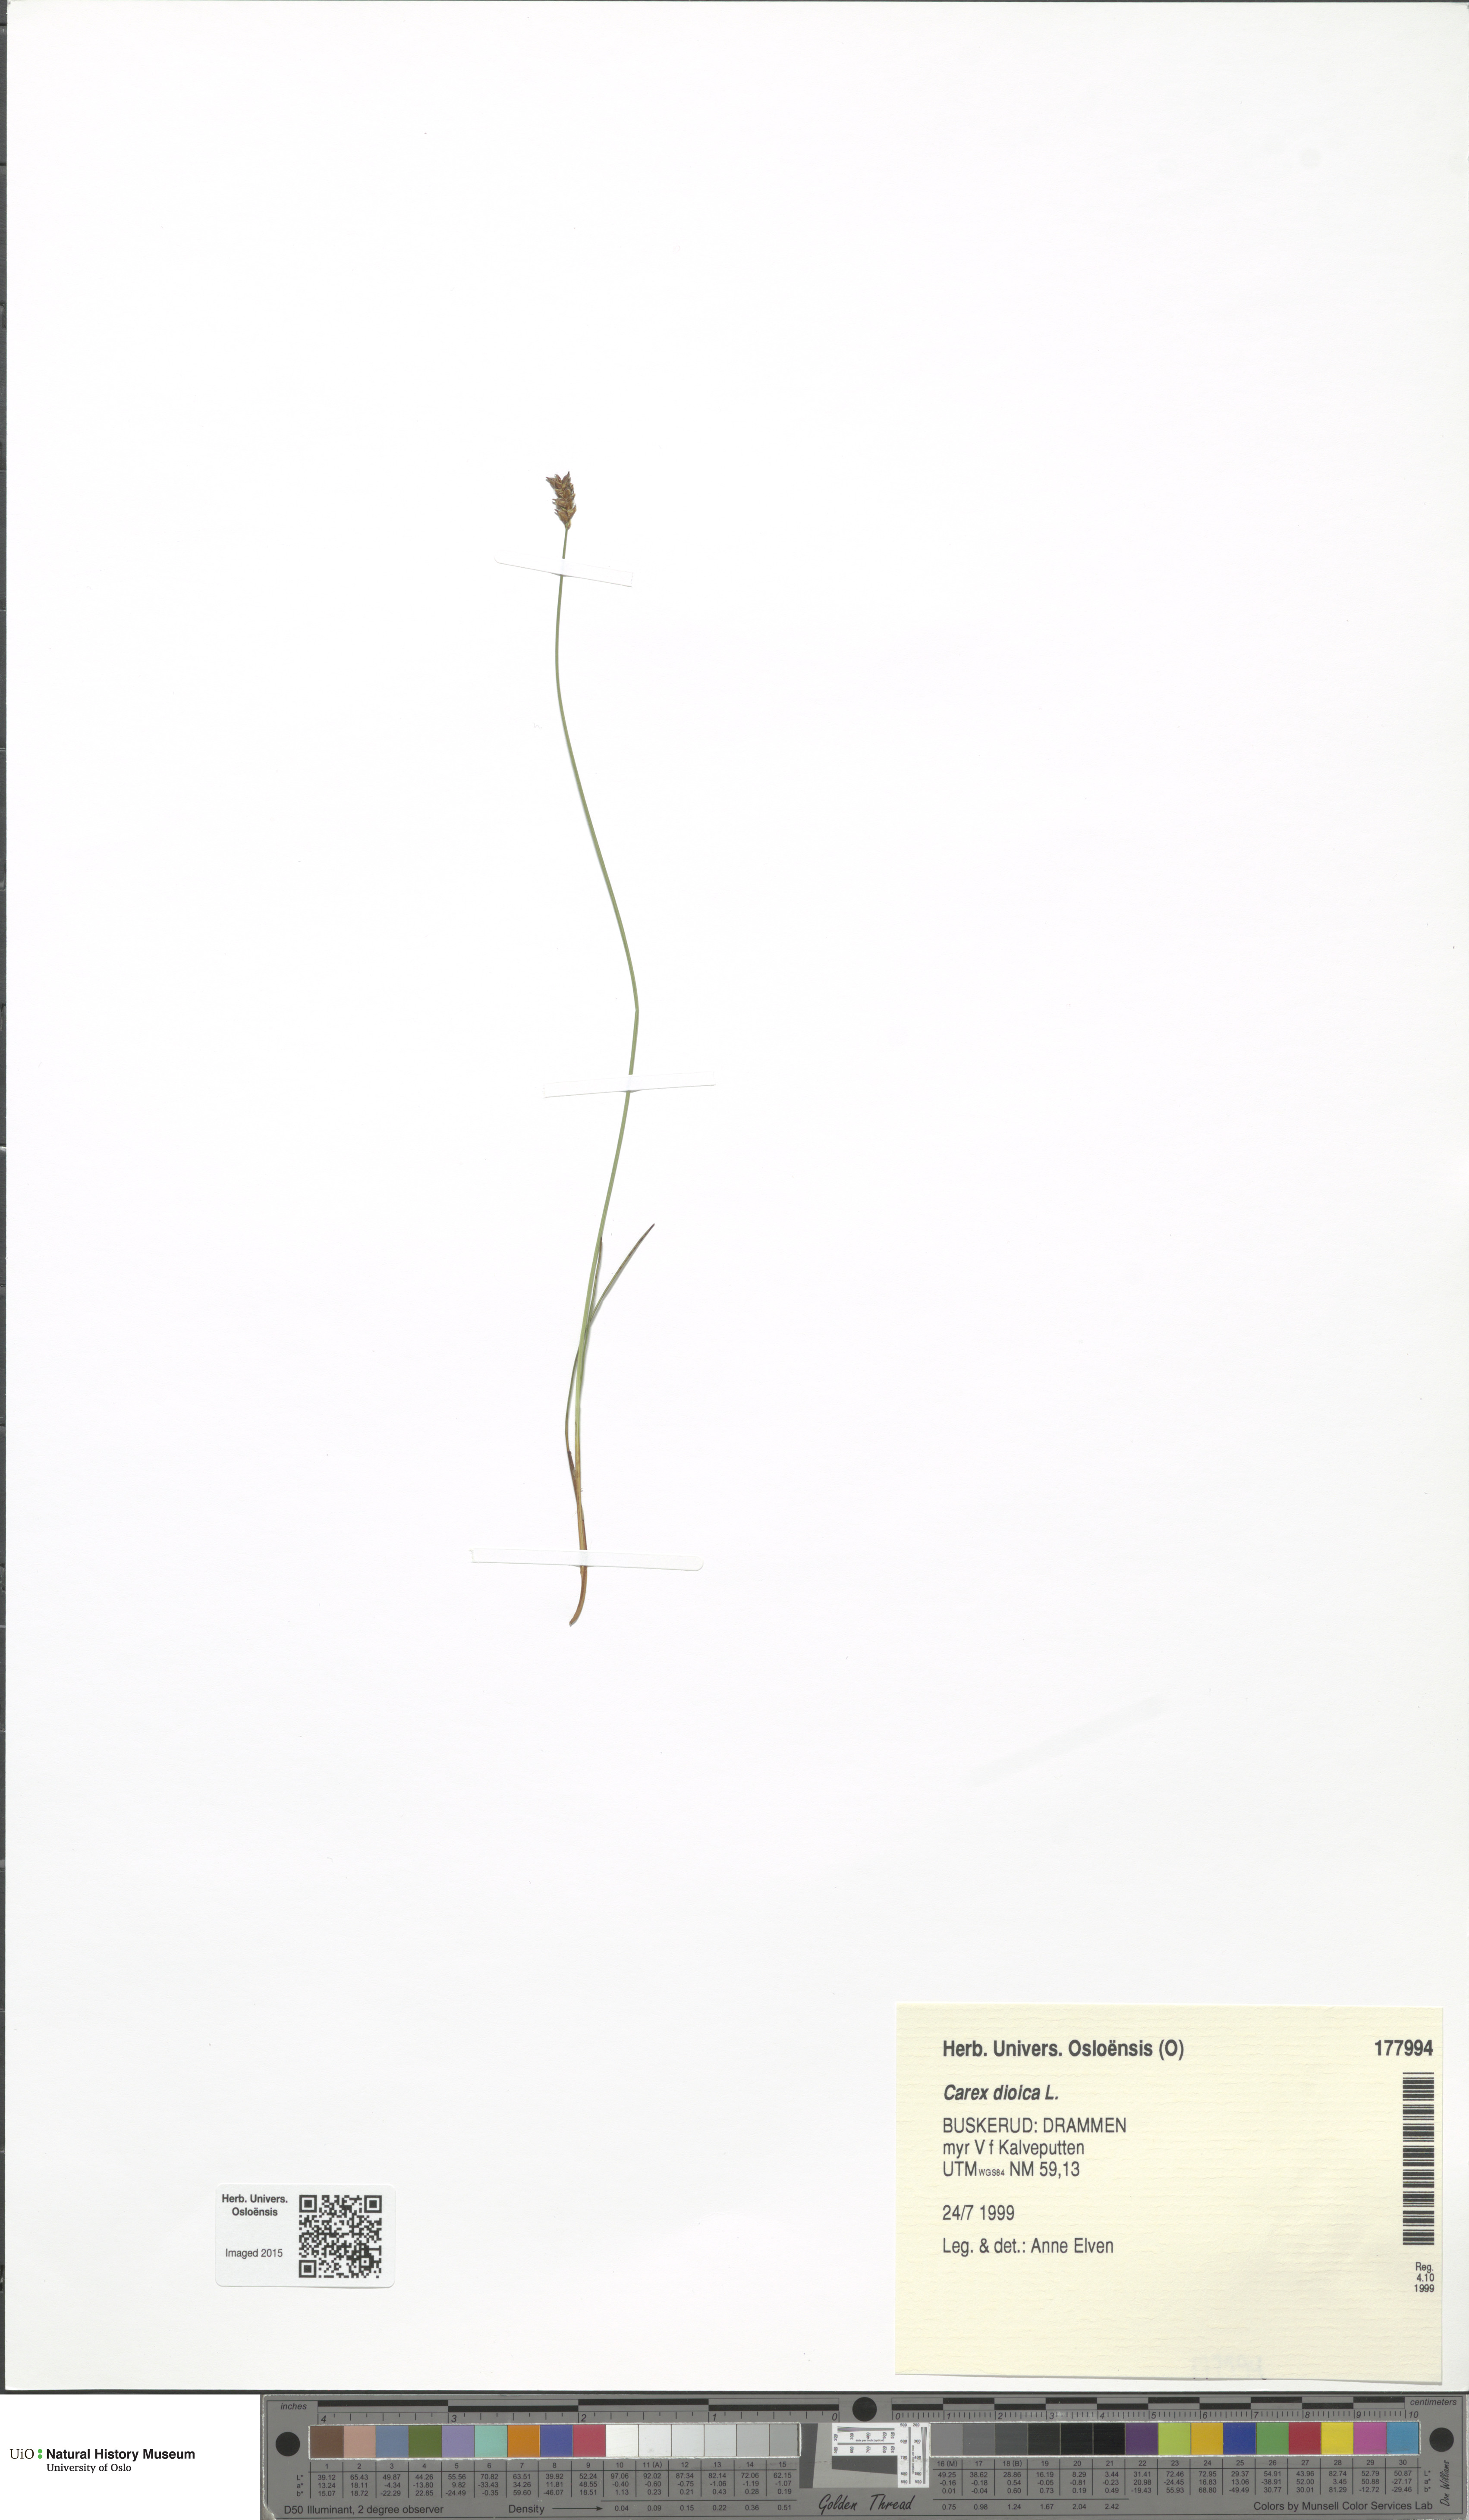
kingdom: Plantae
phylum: Tracheophyta
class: Liliopsida
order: Poales
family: Cyperaceae
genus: Carex
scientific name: Carex dioica
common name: Dioecious sedge
